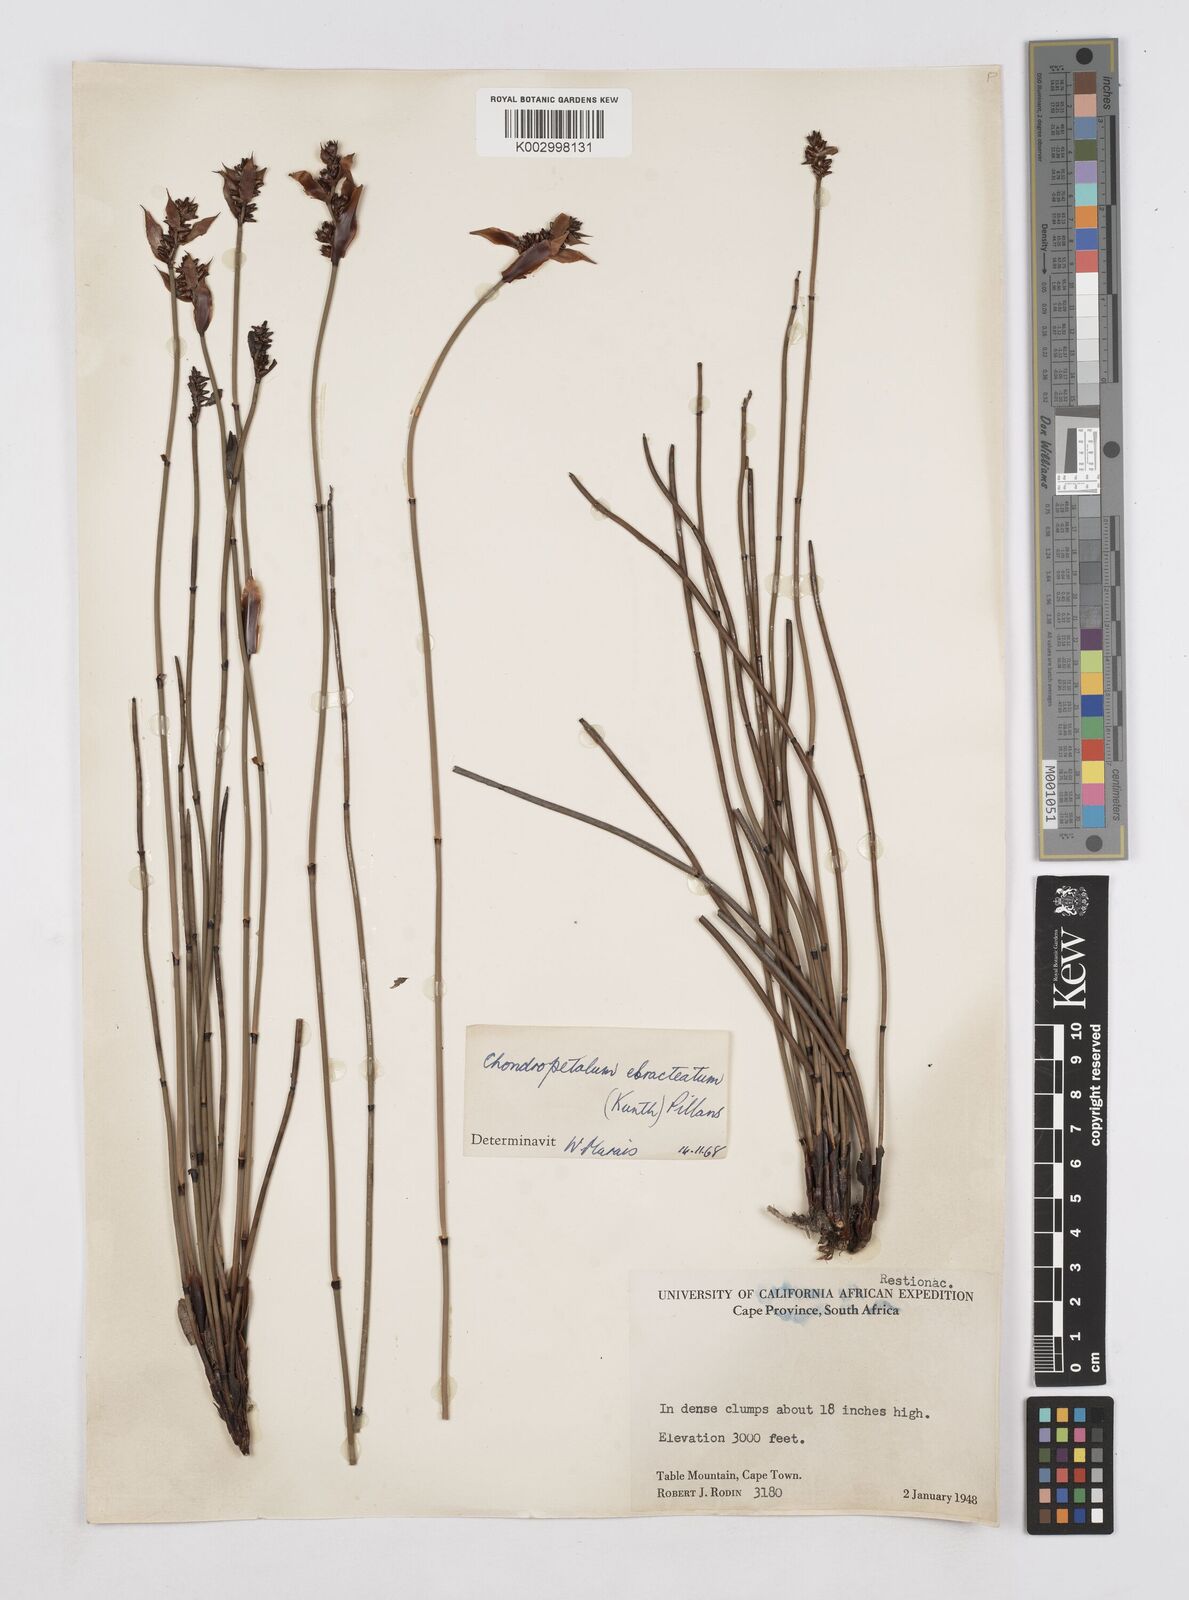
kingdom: Plantae
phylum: Tracheophyta
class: Liliopsida
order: Poales
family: Restionaceae
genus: Elegia
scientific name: Elegia ebracteata
